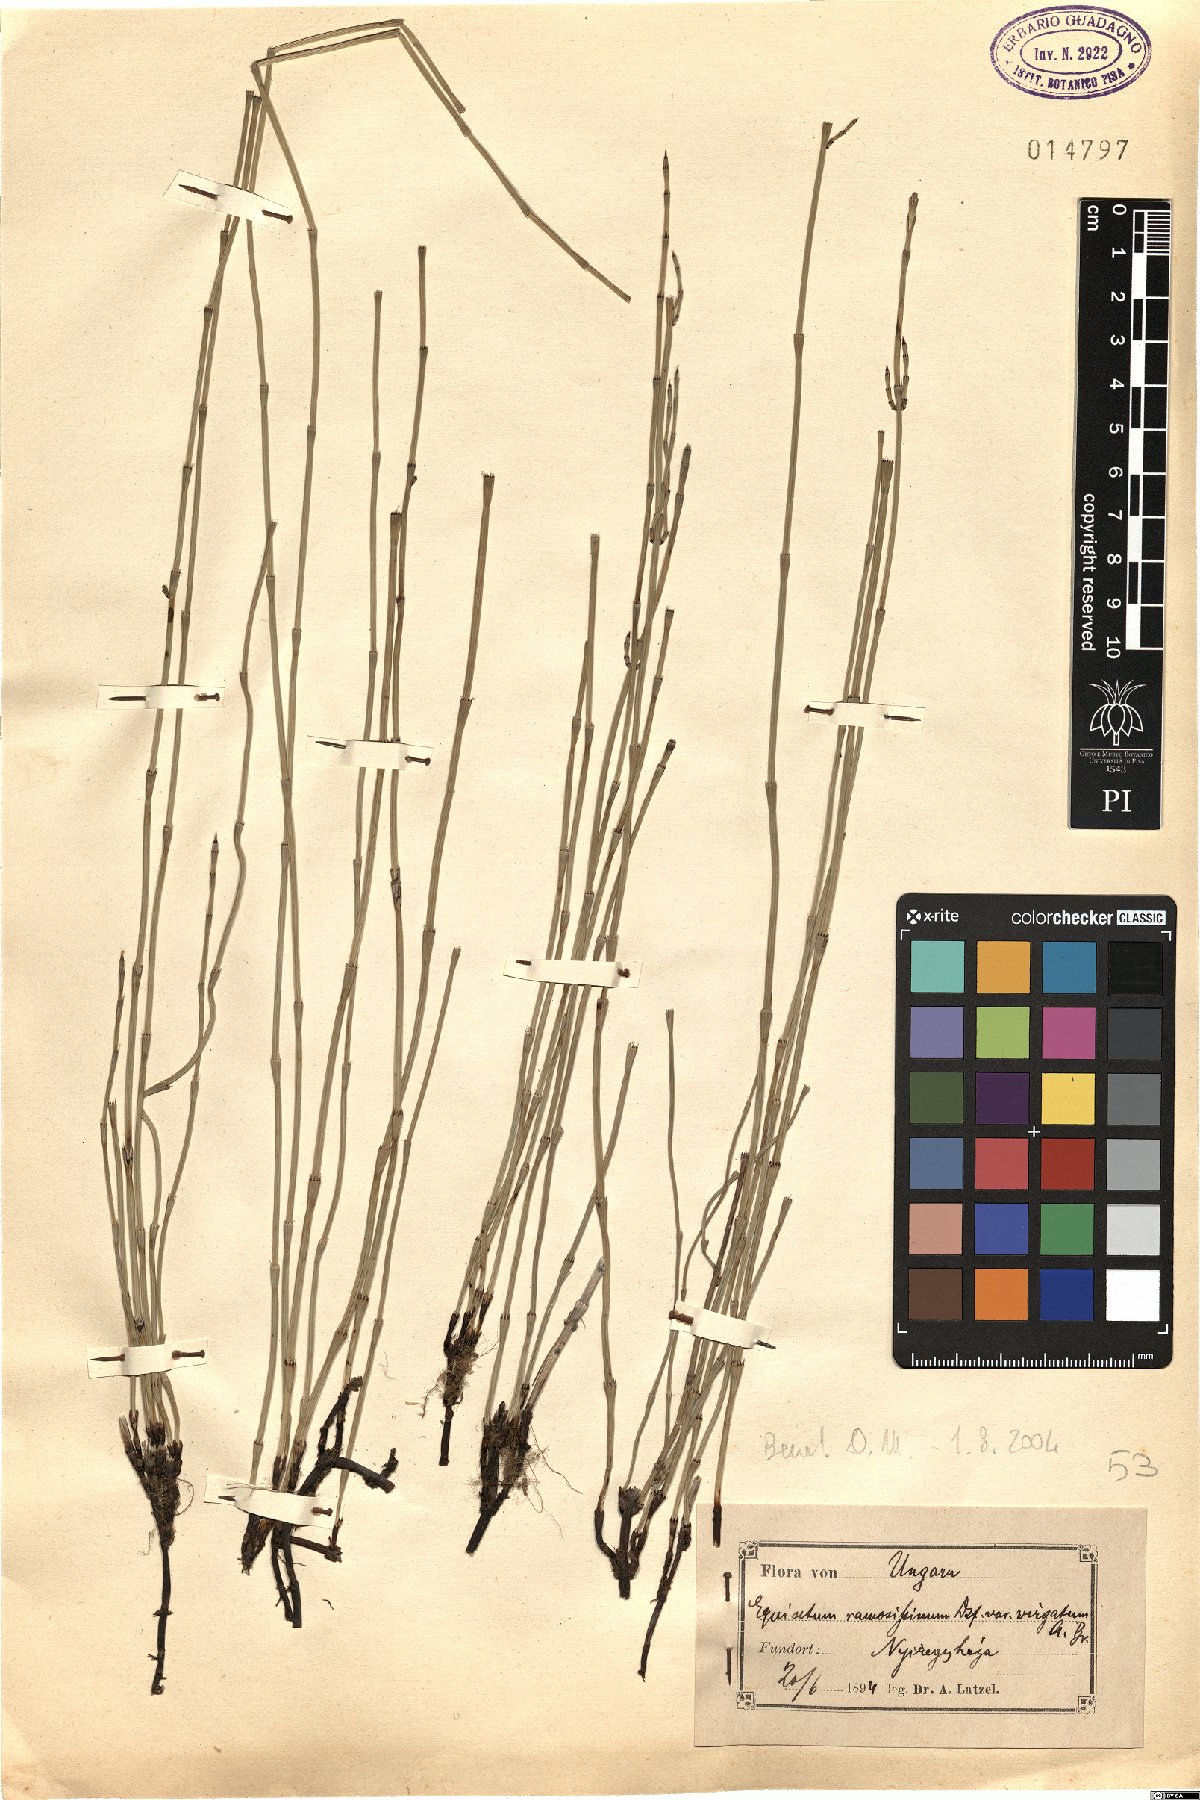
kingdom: Plantae
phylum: Tracheophyta
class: Polypodiopsida
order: Equisetales
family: Equisetaceae
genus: Equisetum
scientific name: Equisetum ramosissimum
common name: Branched horsetail
